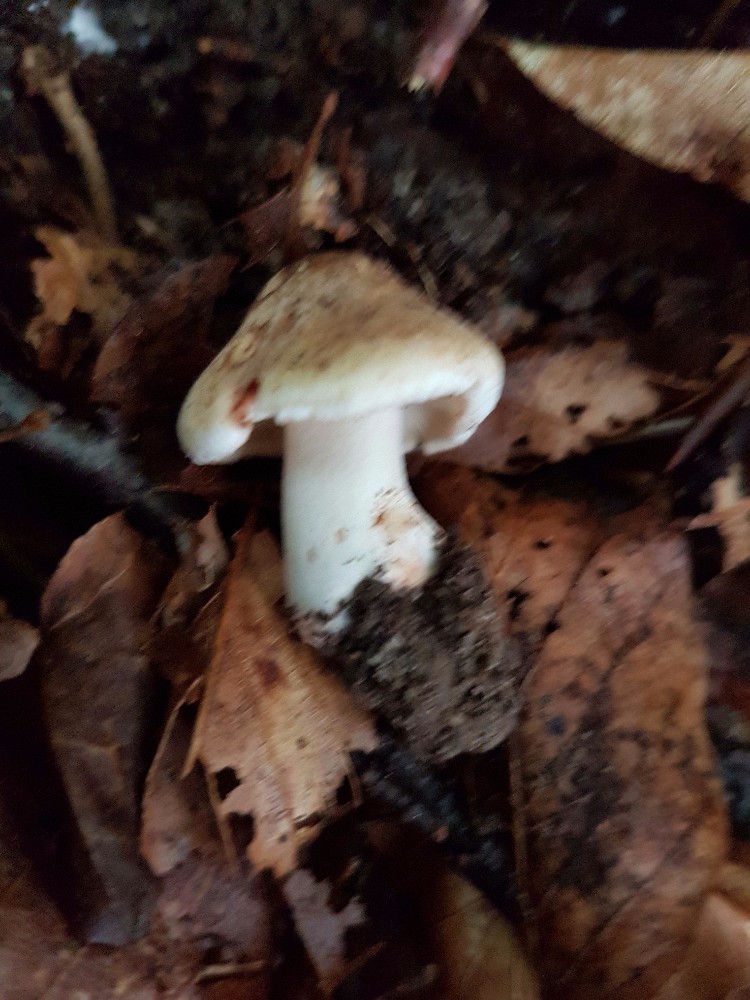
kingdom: Fungi
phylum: Basidiomycota
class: Agaricomycetes
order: Agaricales
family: Inocybaceae
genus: Inosperma
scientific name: Inosperma
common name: Trævlhat
